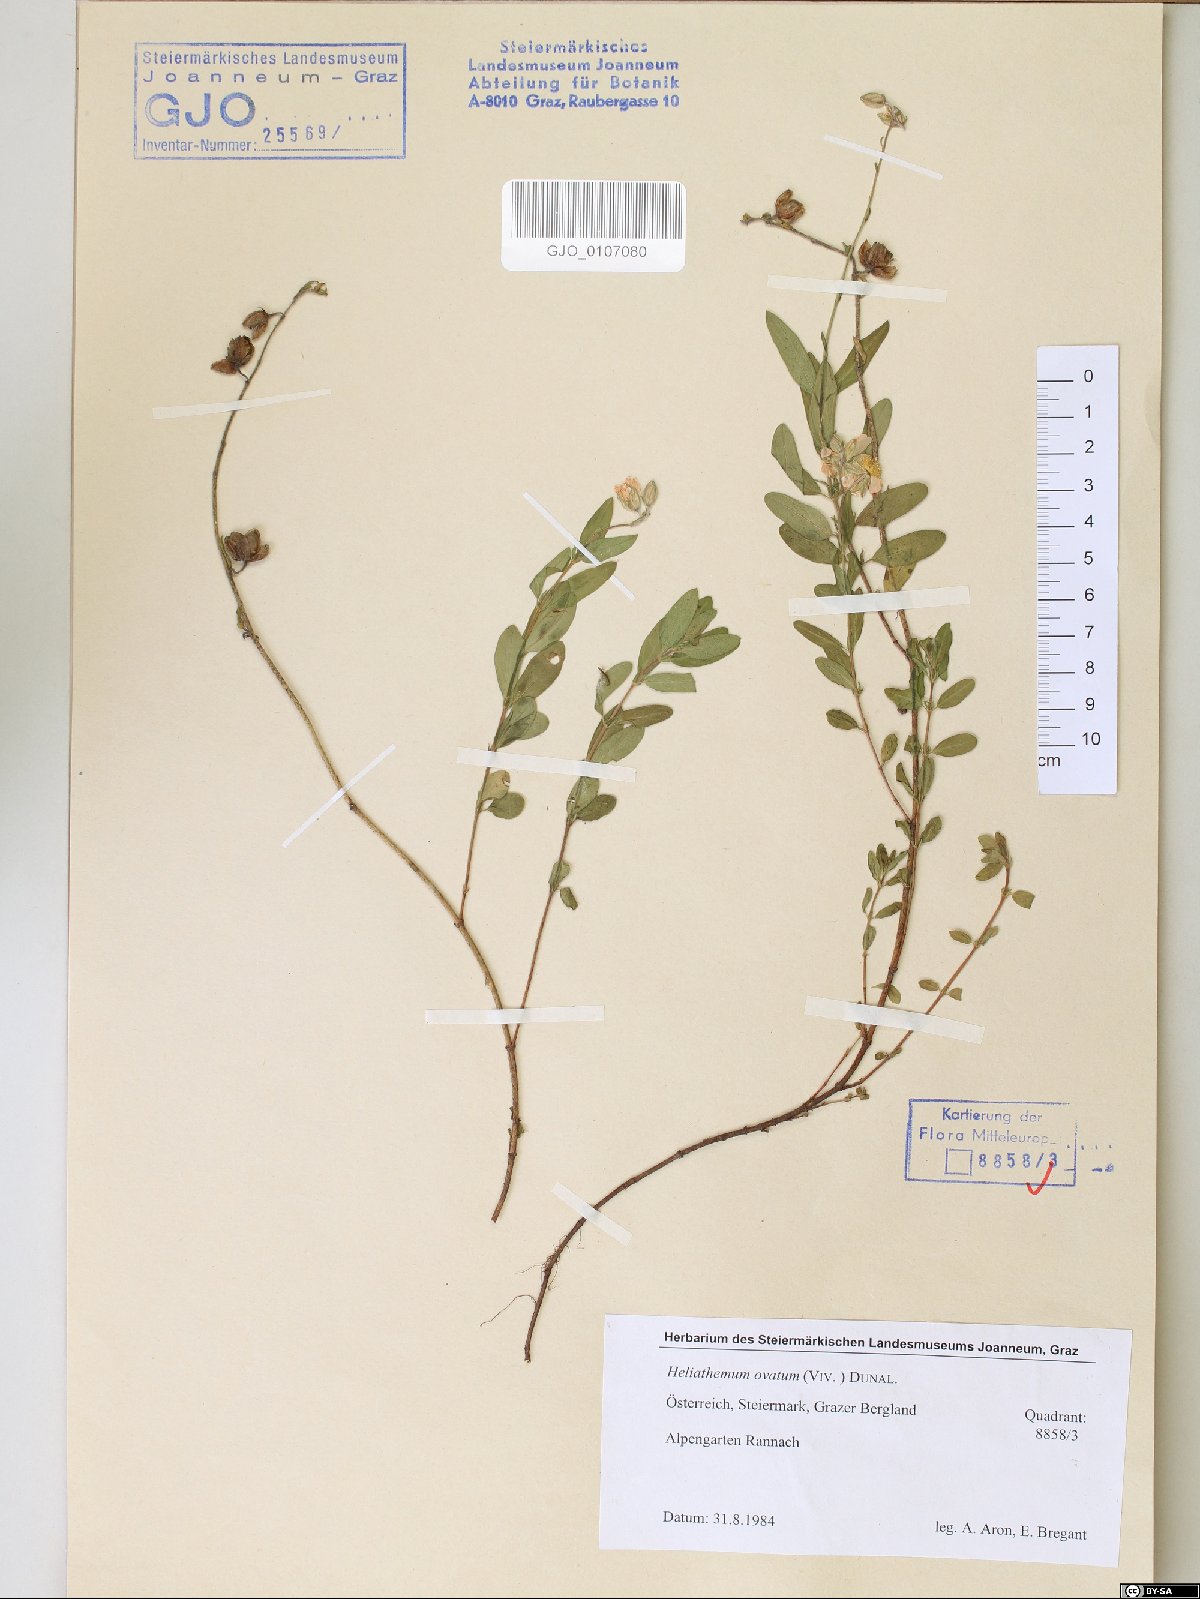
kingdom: Plantae
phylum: Tracheophyta
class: Magnoliopsida
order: Malvales
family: Cistaceae
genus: Helianthemum
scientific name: Helianthemum nummularium
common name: Common rock-rose
